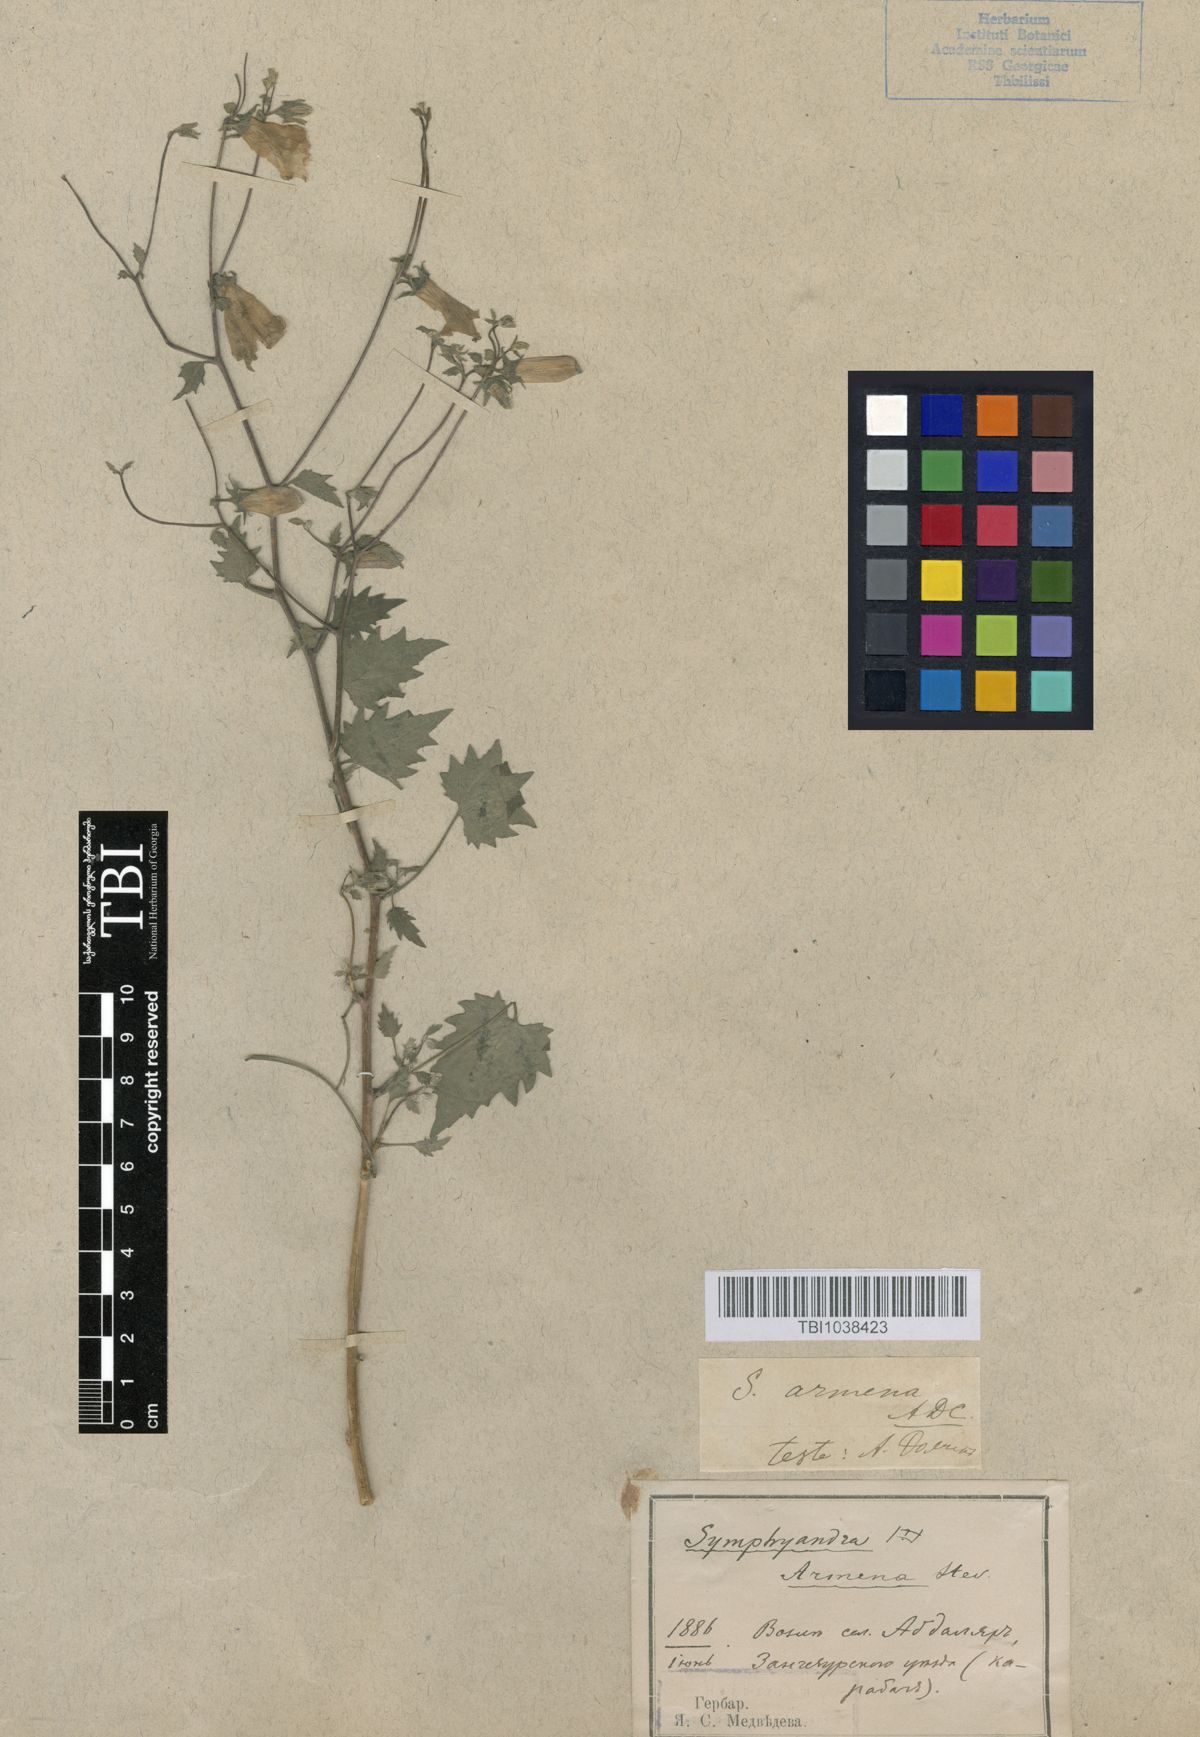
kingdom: Plantae
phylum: Tracheophyta
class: Magnoliopsida
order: Asterales
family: Campanulaceae
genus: Campanula
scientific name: Campanula armena
